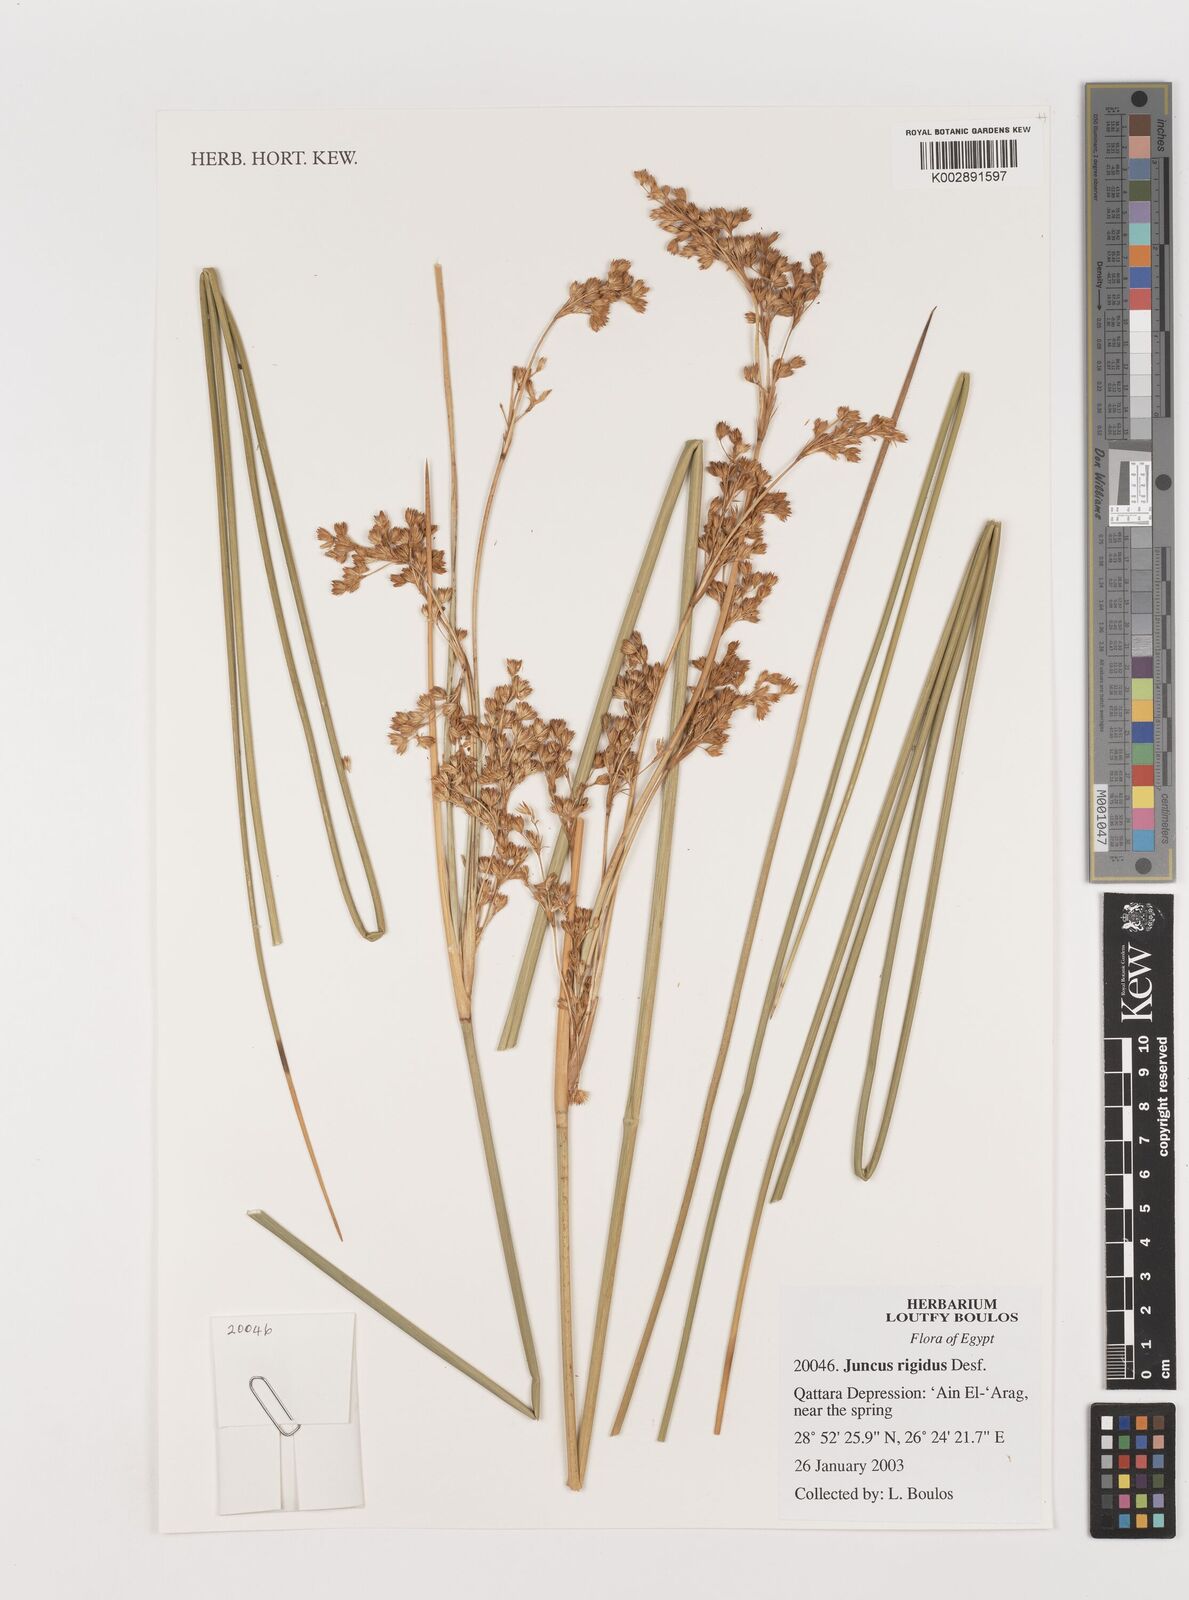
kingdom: Plantae
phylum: Tracheophyta
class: Liliopsida
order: Poales
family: Juncaceae
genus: Juncus
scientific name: Juncus rigidus
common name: Hard sea rush
